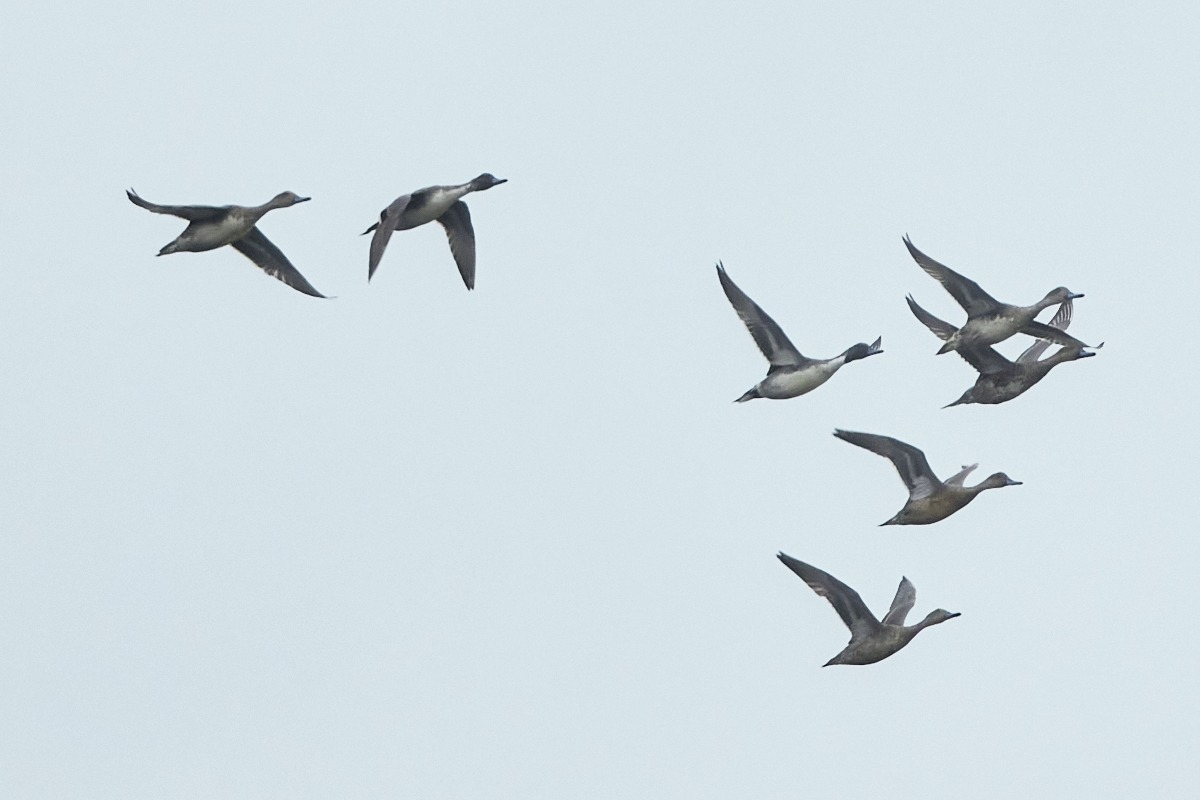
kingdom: Animalia
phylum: Chordata
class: Aves
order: Anseriformes
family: Anatidae
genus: Anas
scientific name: Anas acuta
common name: Spidsand
